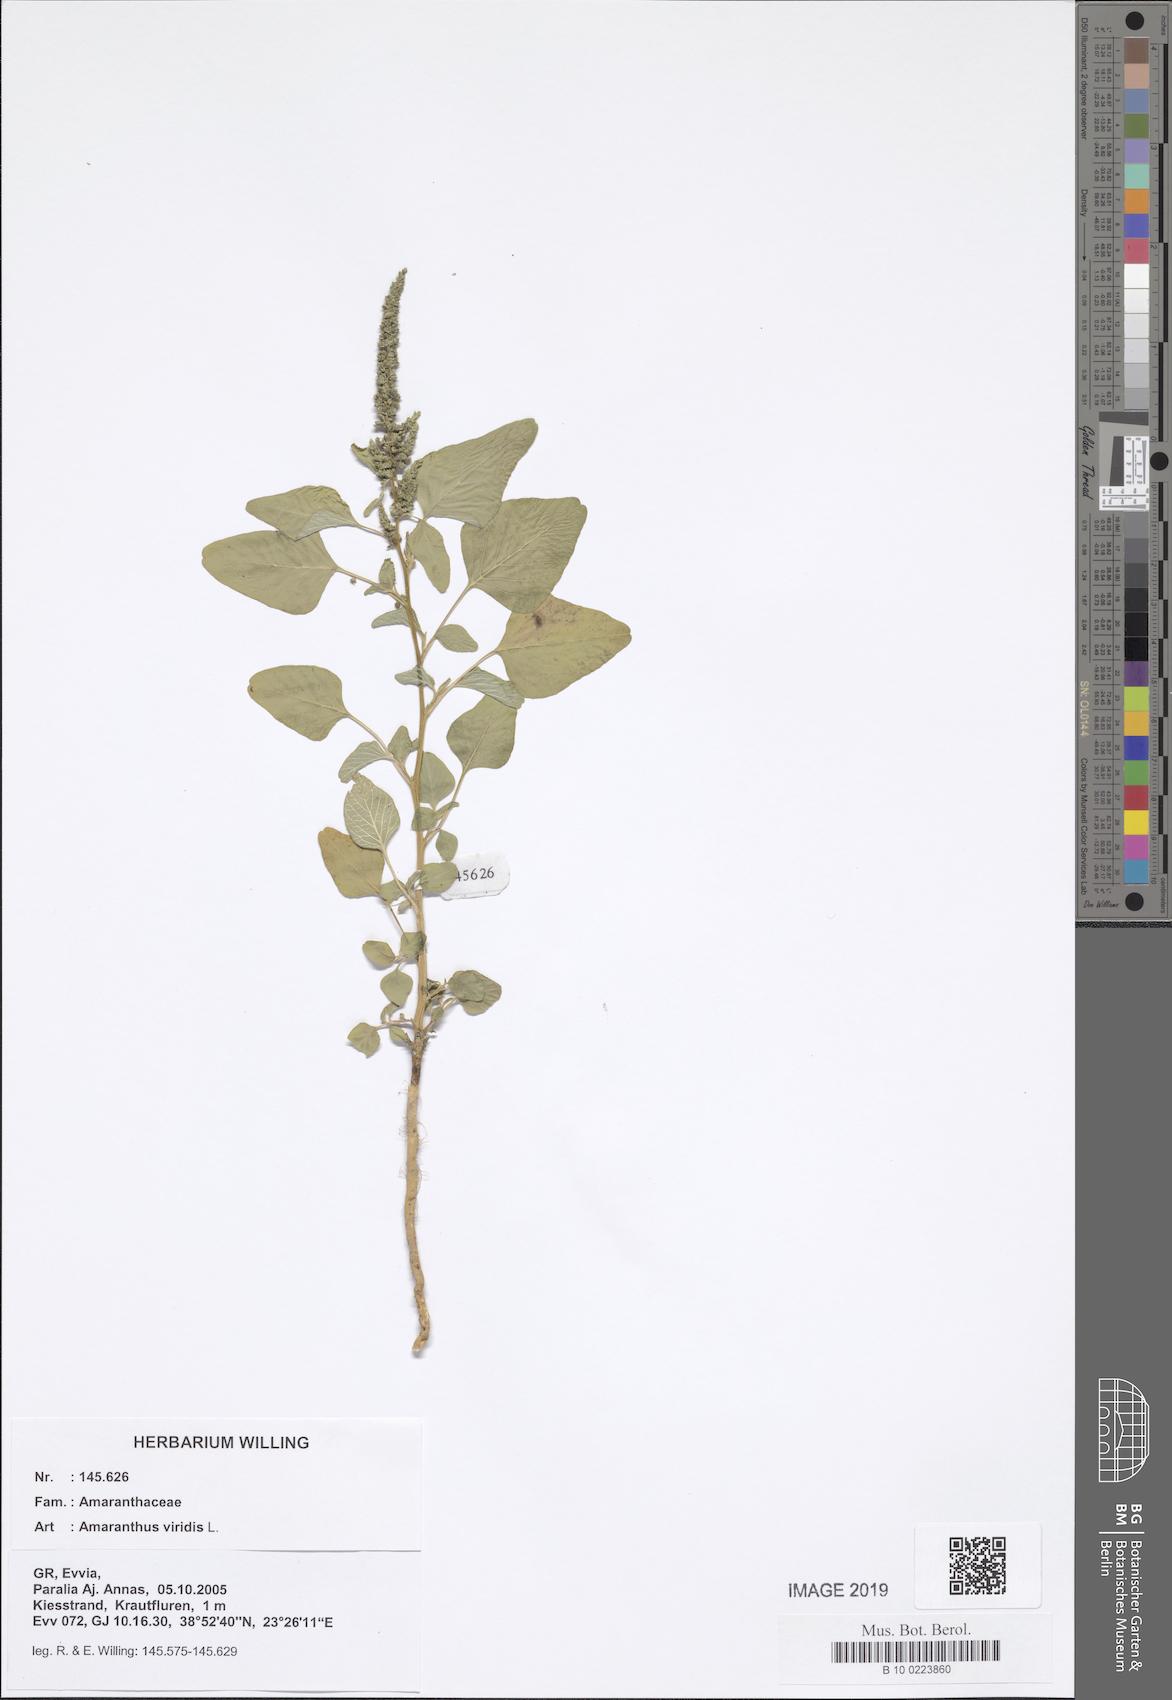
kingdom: Plantae
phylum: Tracheophyta
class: Magnoliopsida
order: Caryophyllales
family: Amaranthaceae
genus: Amaranthus
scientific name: Amaranthus viridis
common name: Slender amaranth
